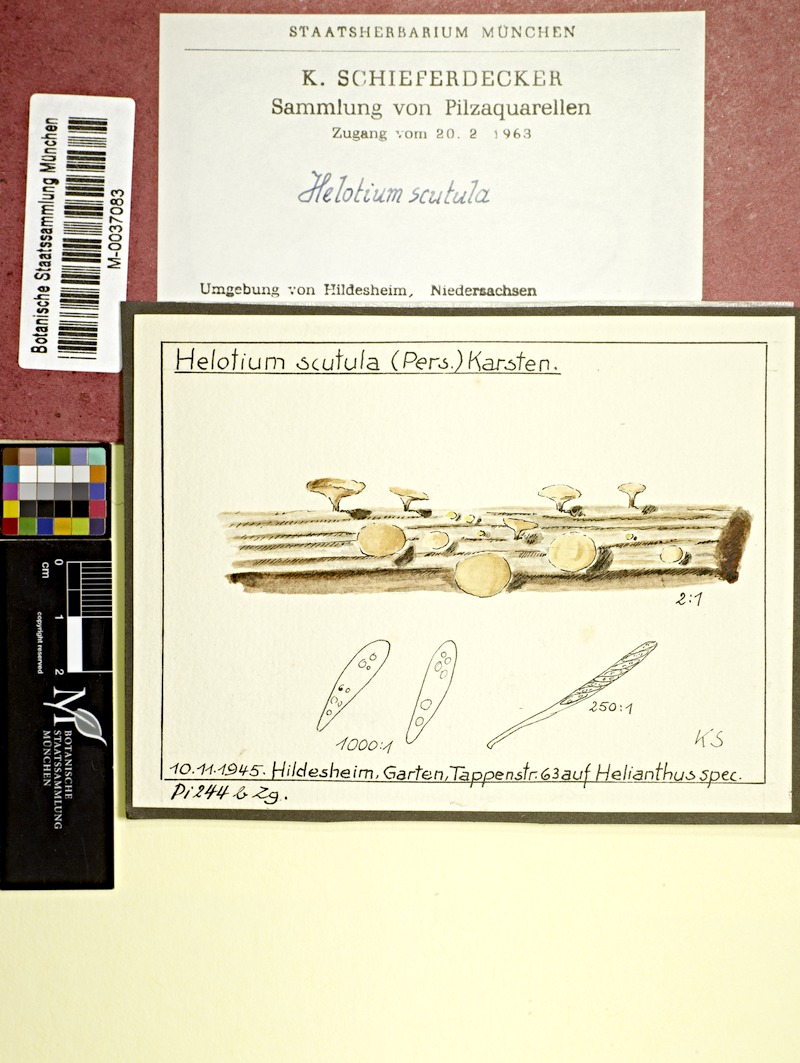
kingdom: Fungi
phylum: Ascomycota
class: Leotiomycetes
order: Helotiales
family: Helotiaceae
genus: Hymenoscyphus
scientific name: Hymenoscyphus scutula
